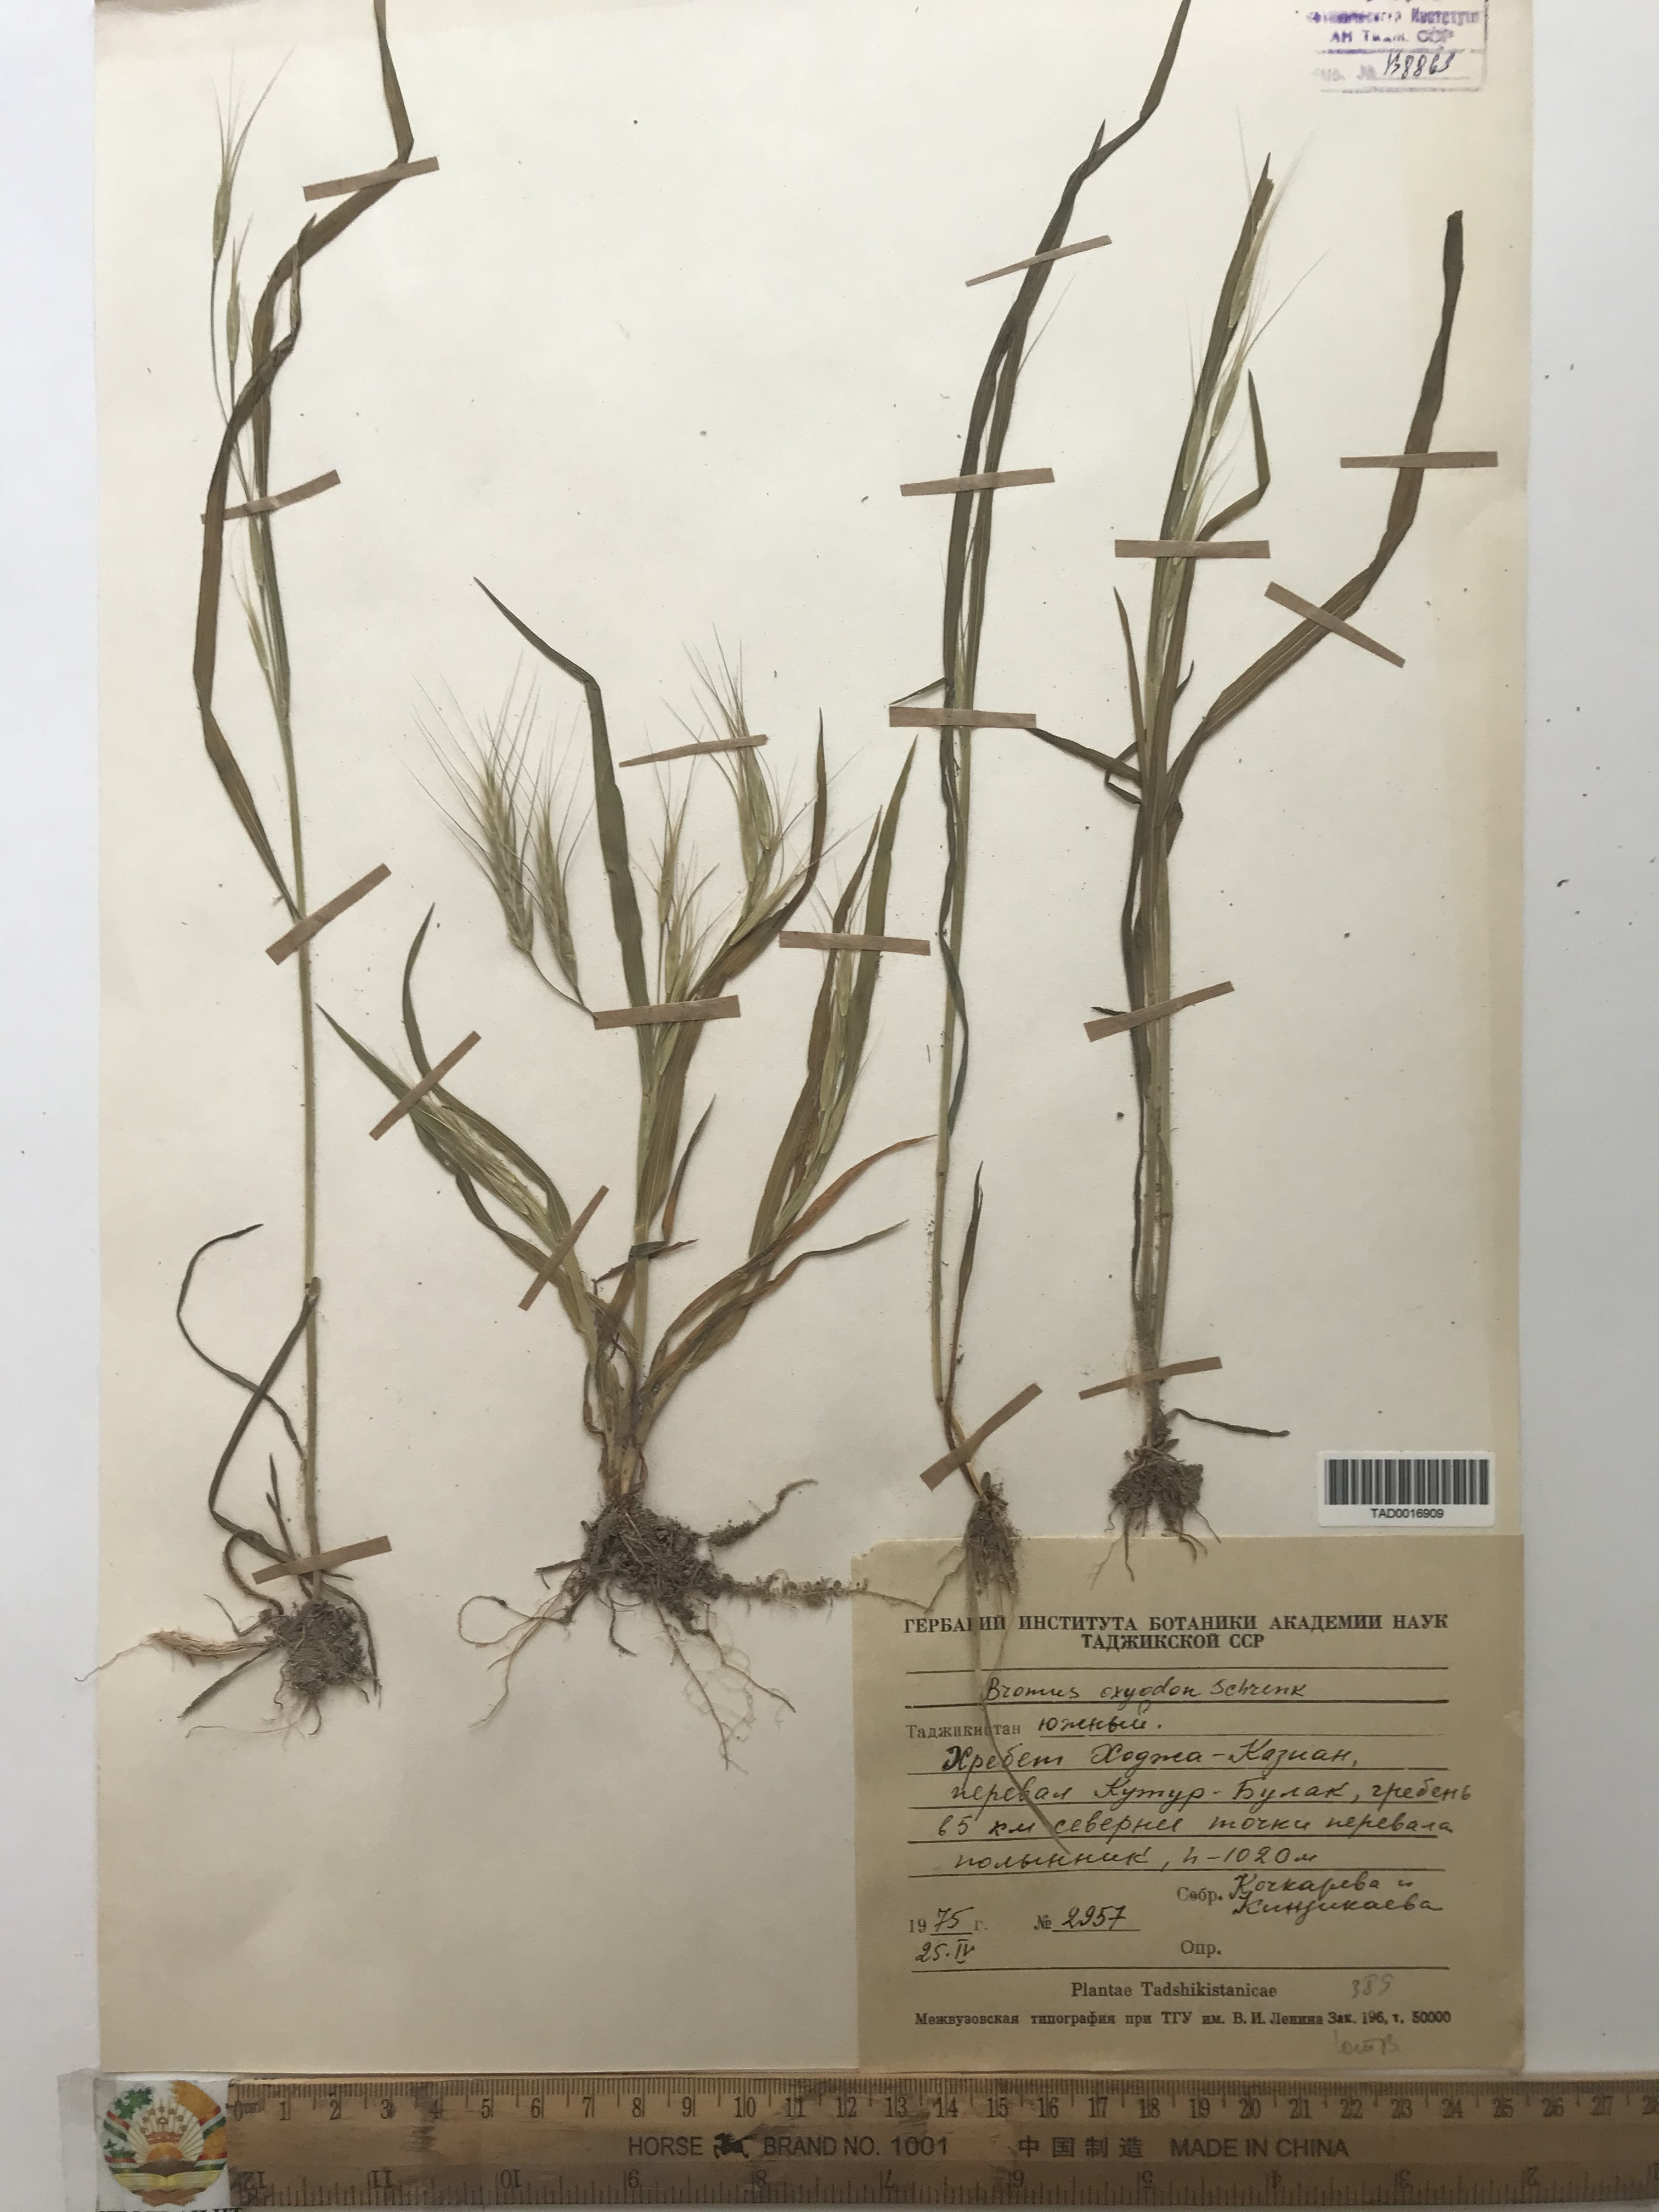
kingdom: Plantae
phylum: Tracheophyta
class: Liliopsida
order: Poales
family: Poaceae
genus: Bromus
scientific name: Bromus oxyodon
